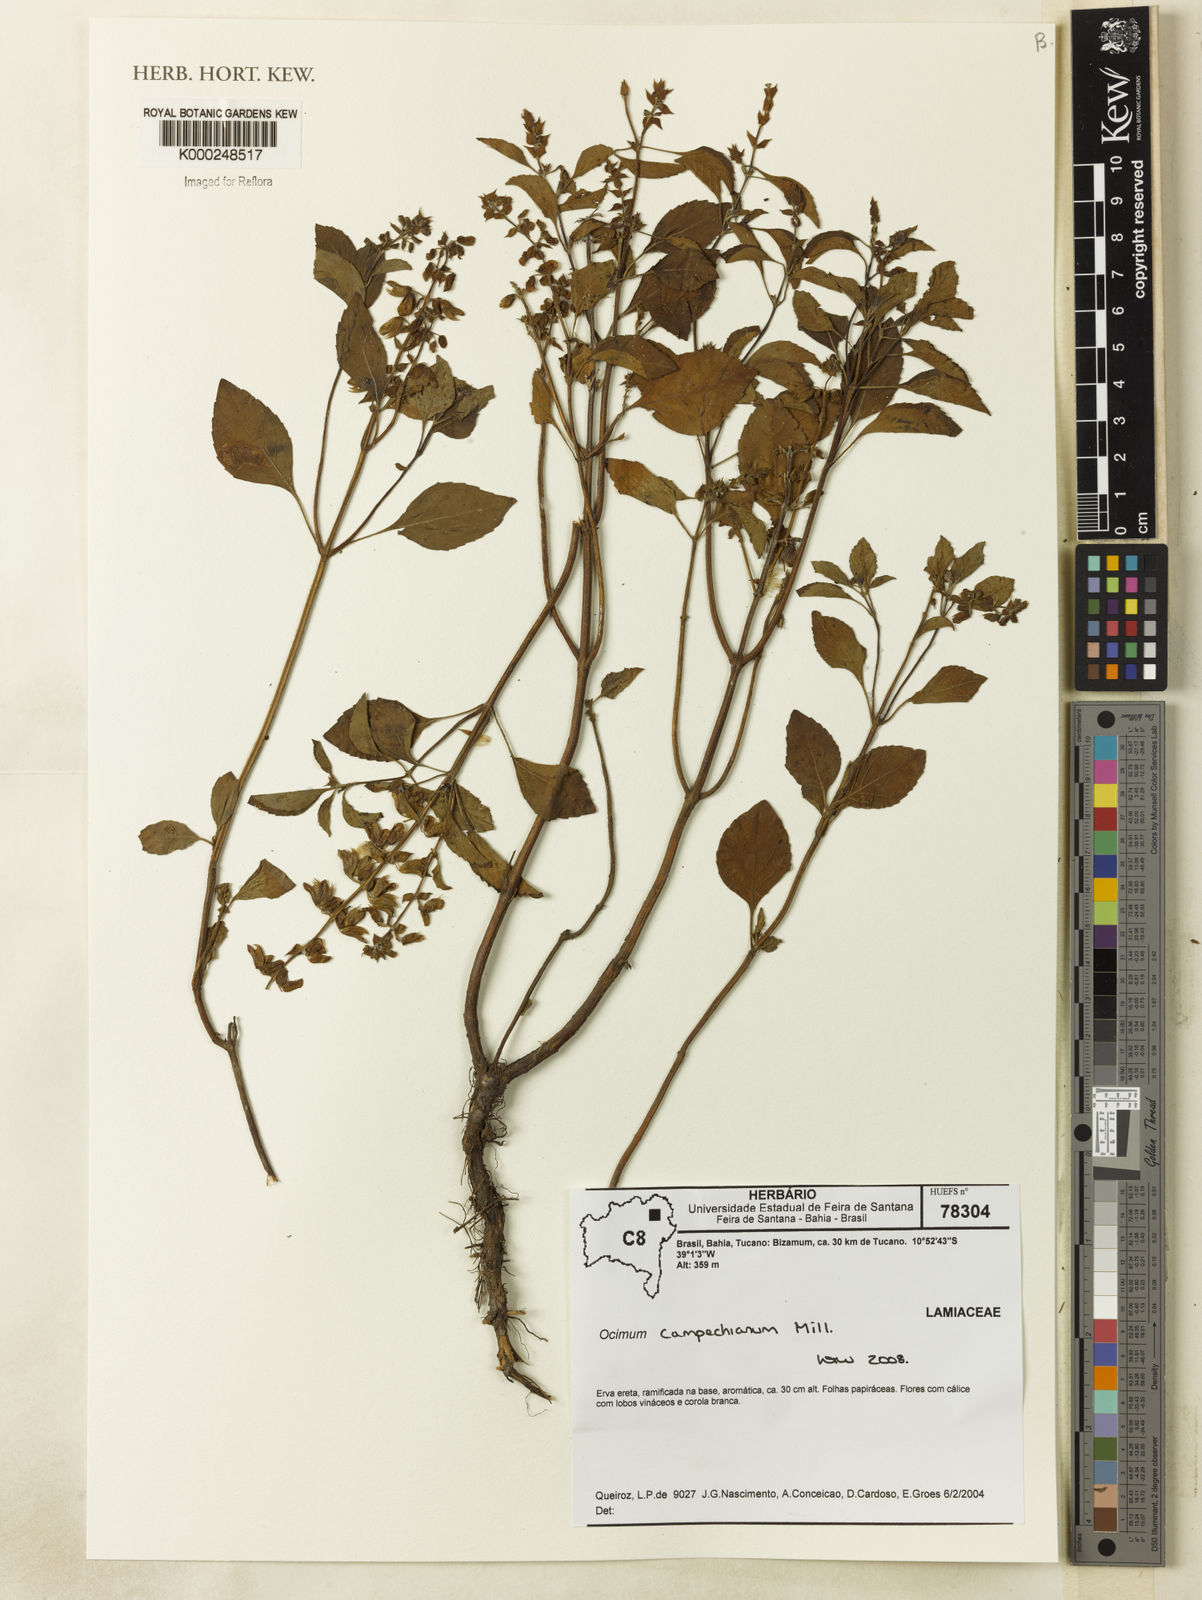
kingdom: Plantae
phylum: Tracheophyta
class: Magnoliopsida
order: Lamiales
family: Lamiaceae
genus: Ocimum
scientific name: Ocimum campechianum
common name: Mosquito basil
